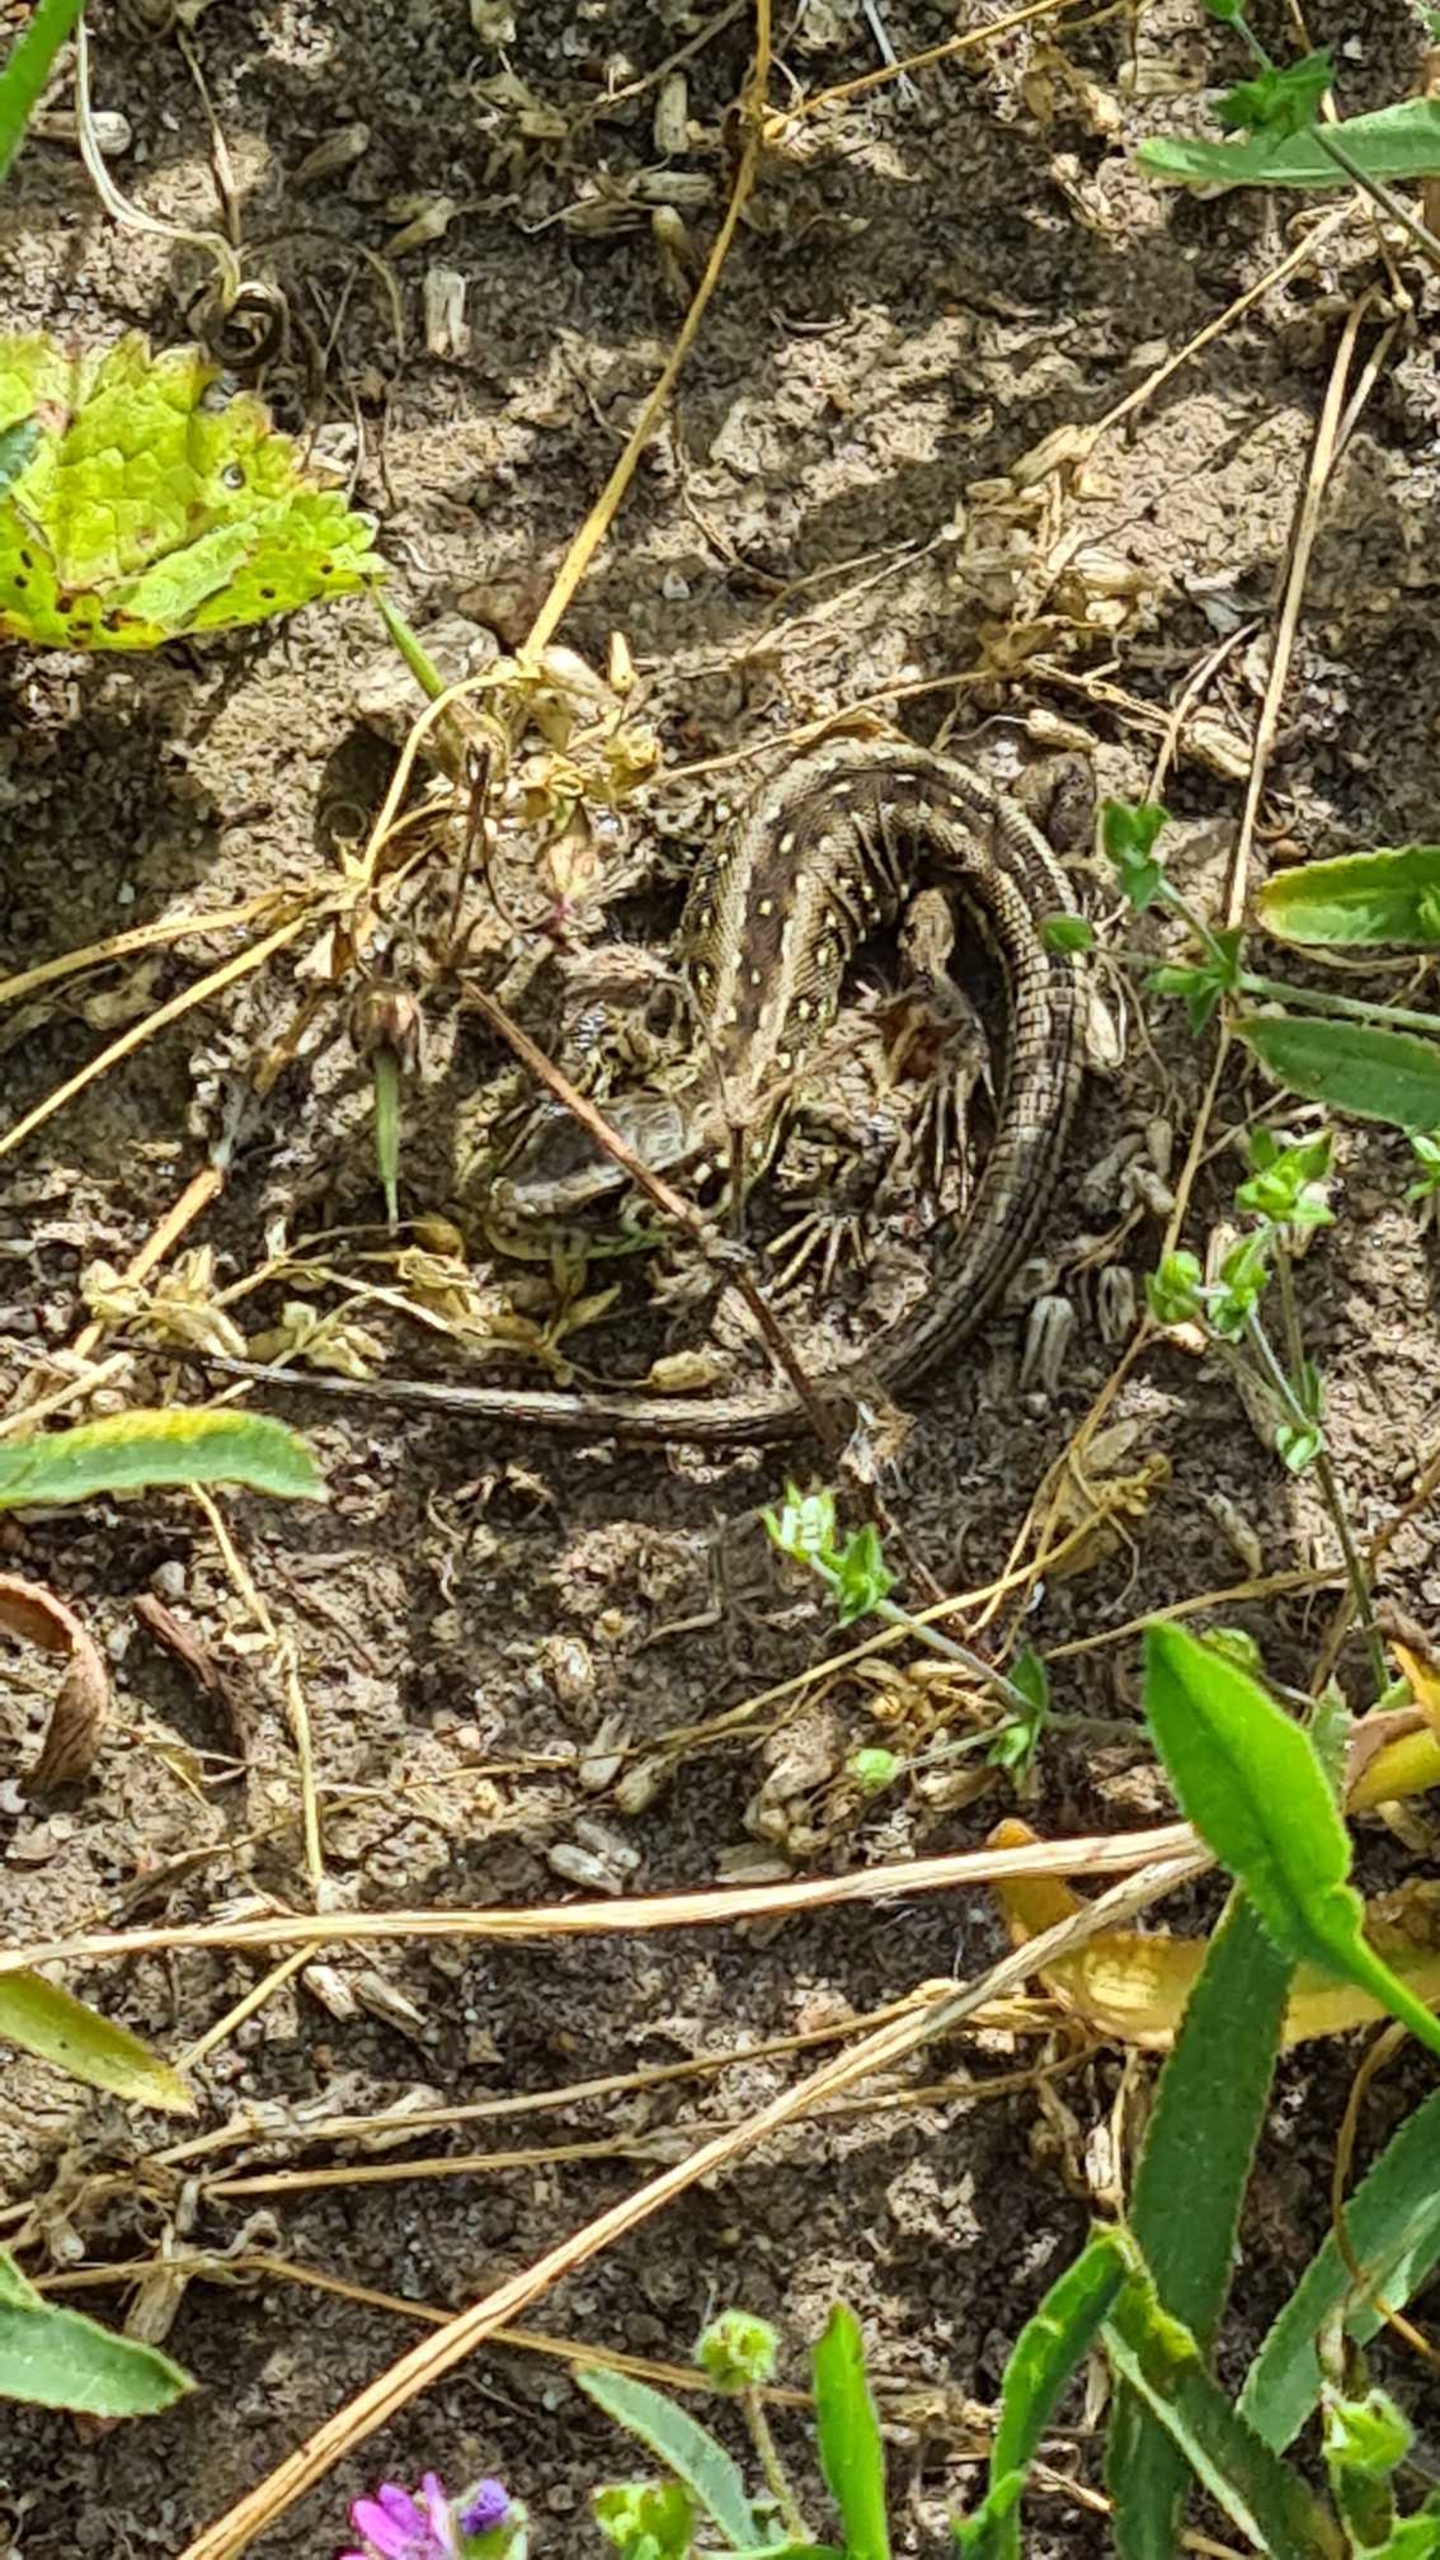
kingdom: Animalia
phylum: Chordata
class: Squamata
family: Lacertidae
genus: Lacerta
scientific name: Lacerta agilis
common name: Markfirben
